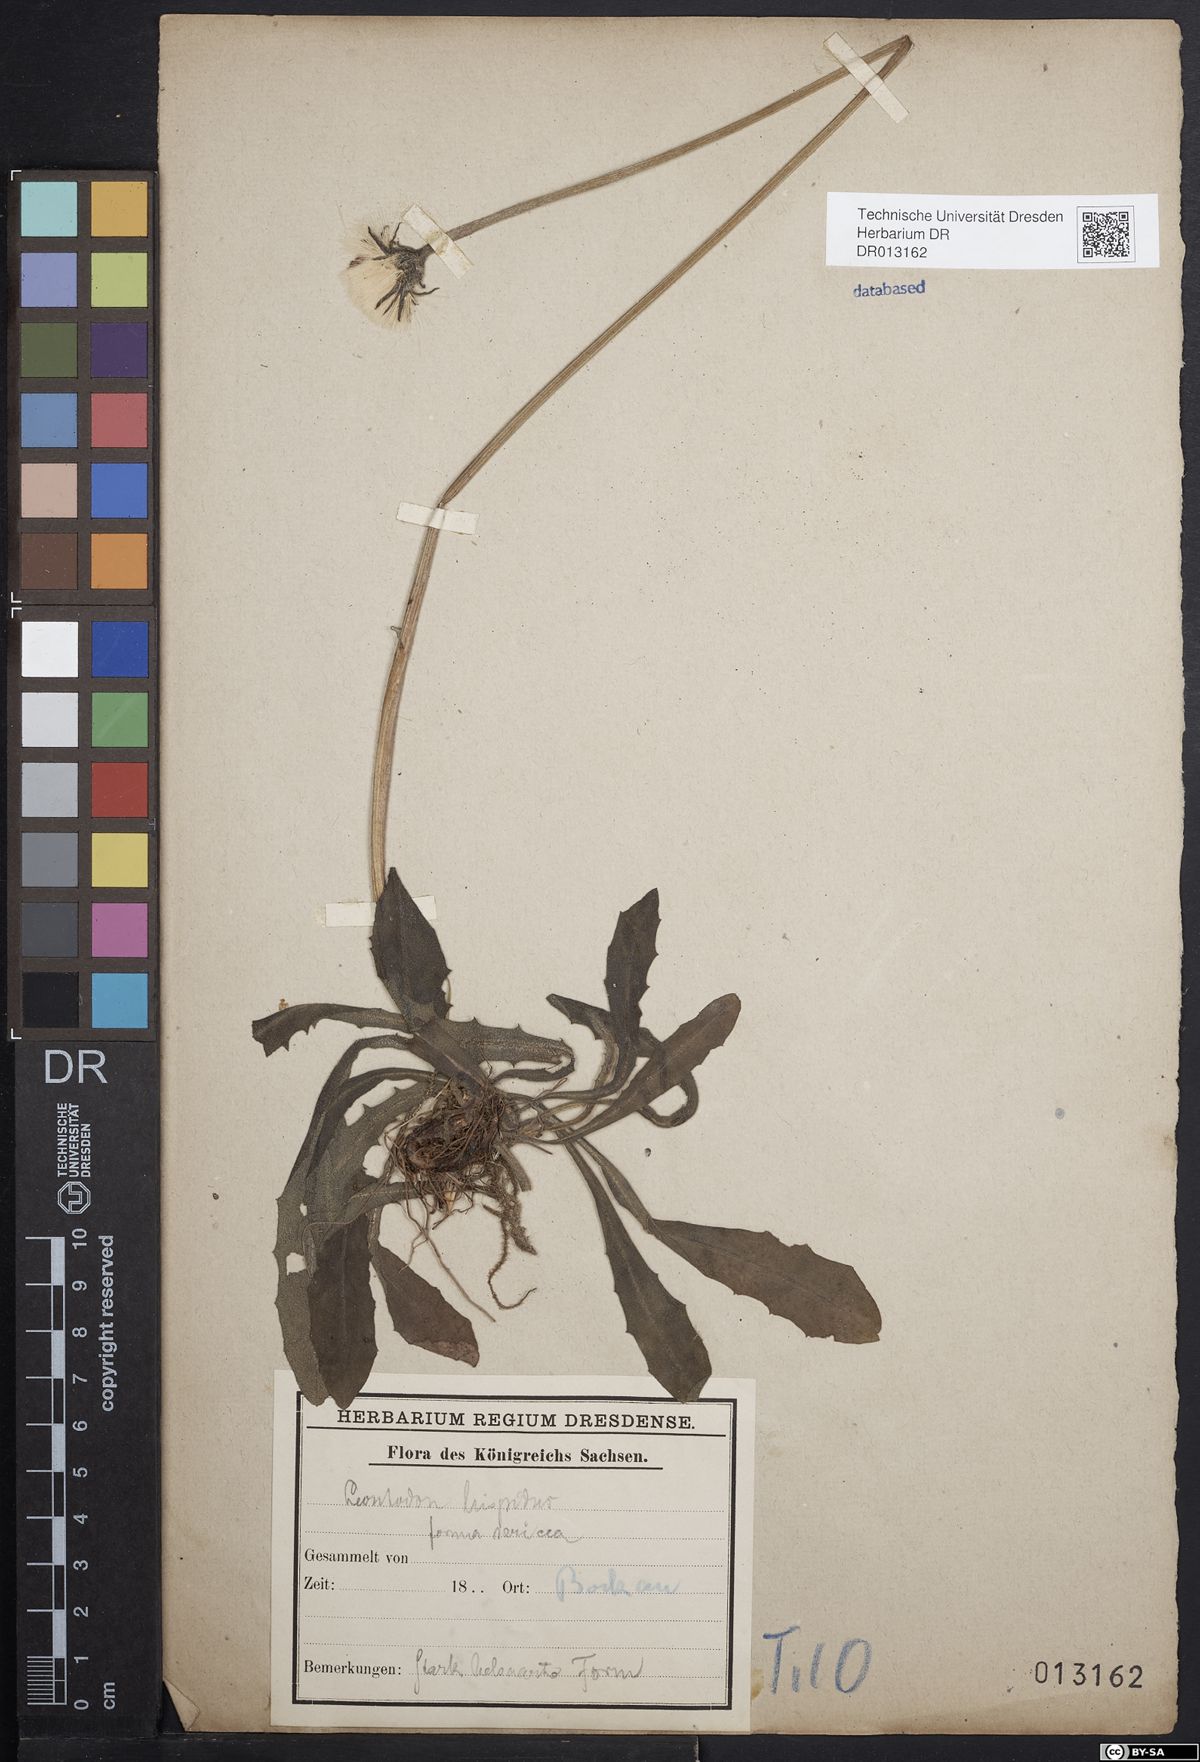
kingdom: Plantae
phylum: Tracheophyta
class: Magnoliopsida
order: Asterales
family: Asteraceae
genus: Leontodon
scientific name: Leontodon hispidus
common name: Rough hawkbit
